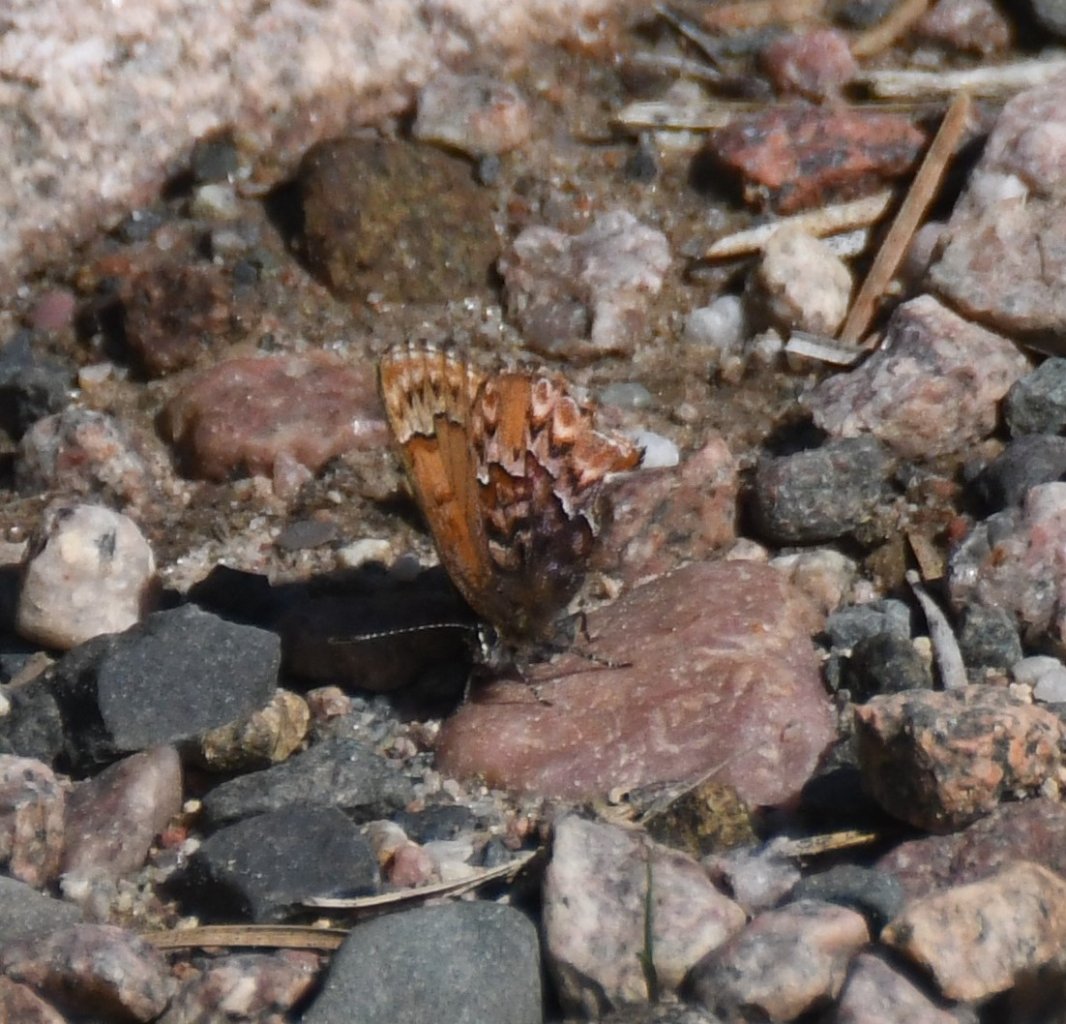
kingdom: Animalia
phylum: Arthropoda
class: Insecta
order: Lepidoptera
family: Lycaenidae
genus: Incisalia
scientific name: Incisalia eryphon
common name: Western Pine Elfin
